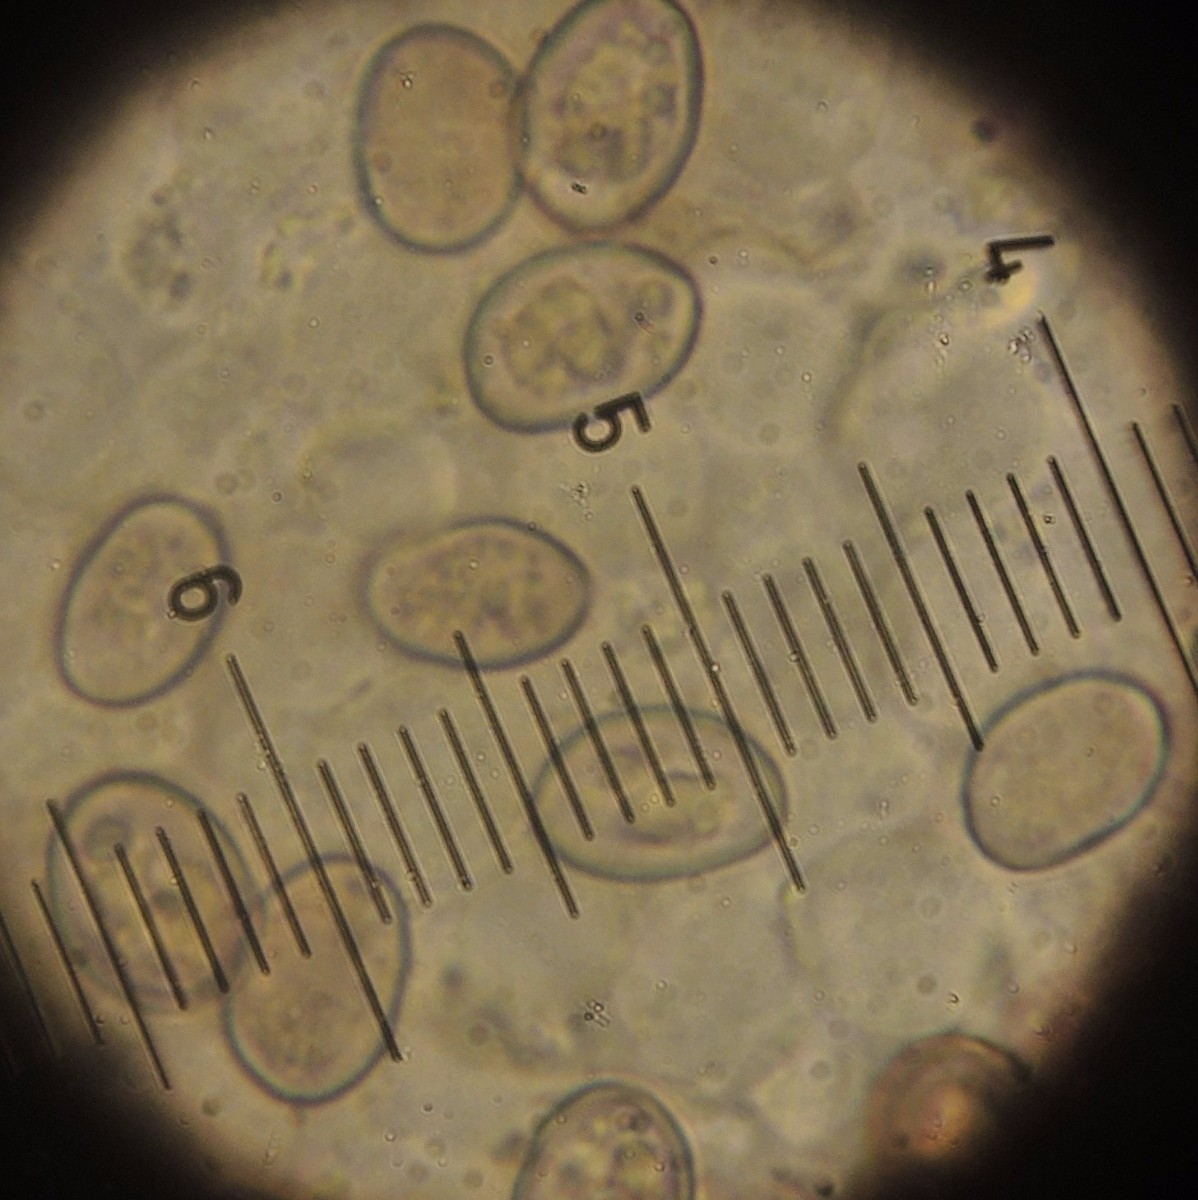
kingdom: Fungi
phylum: Basidiomycota
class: Agaricomycetes
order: Agaricales
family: Crepidotaceae
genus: Simocybe
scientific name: Simocybe haustellaris
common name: skæv skyggehat
